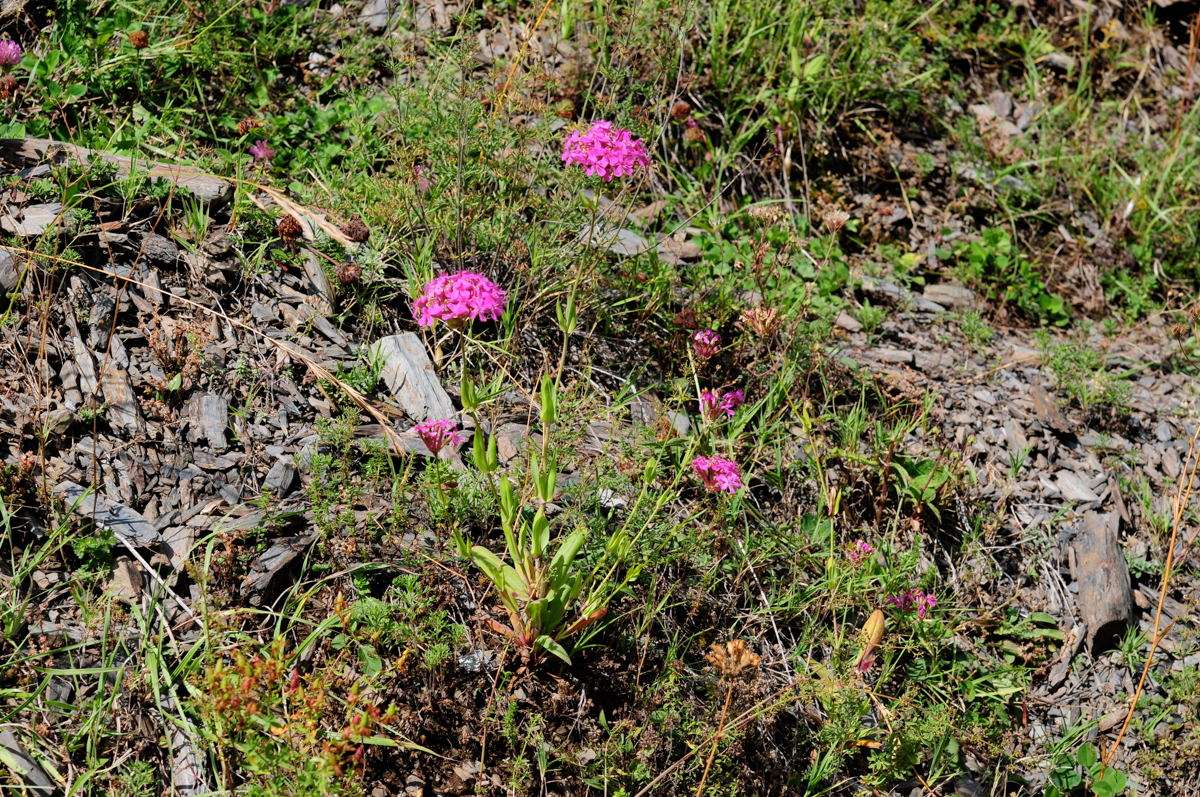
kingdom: Plantae
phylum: Tracheophyta
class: Magnoliopsida
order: Caryophyllales
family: Caryophyllaceae
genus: Atocion
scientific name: Atocion compactum
